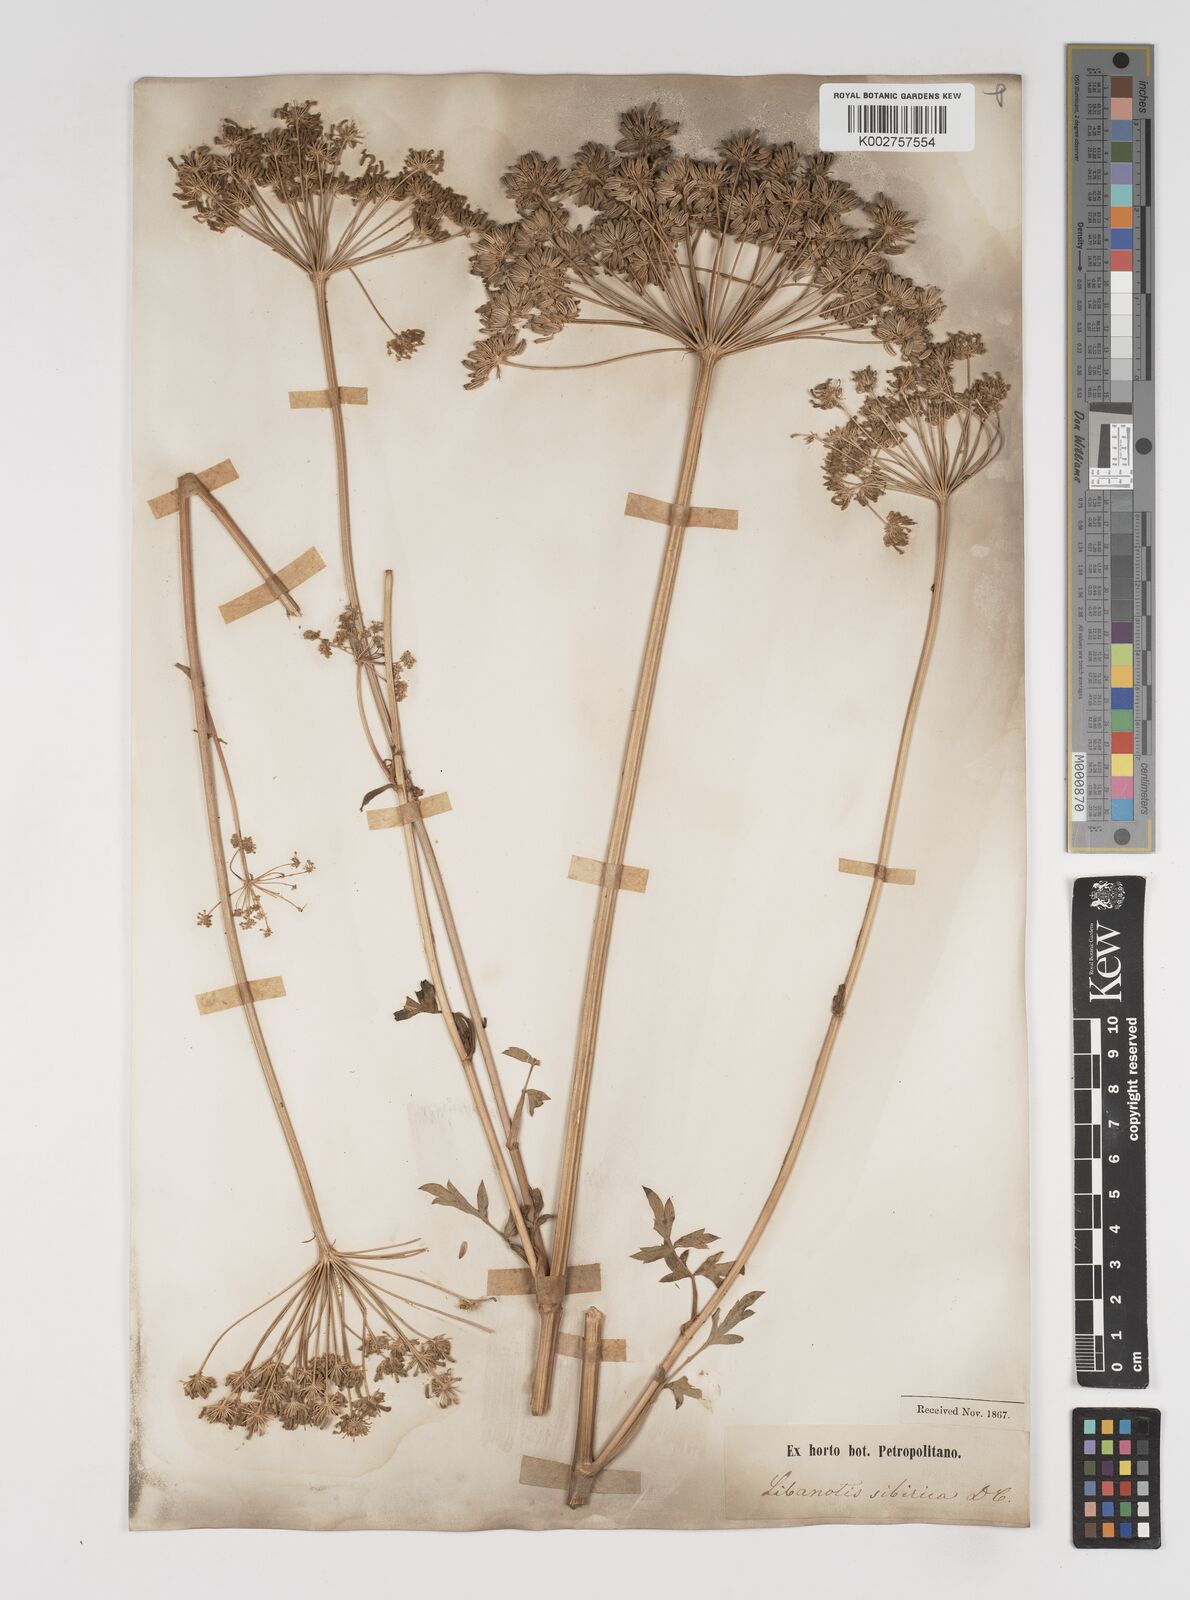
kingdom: Plantae
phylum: Tracheophyta
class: Magnoliopsida
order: Apiales
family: Apiaceae
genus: Seseli
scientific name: Seseli libanotis
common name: Mooncarrot
